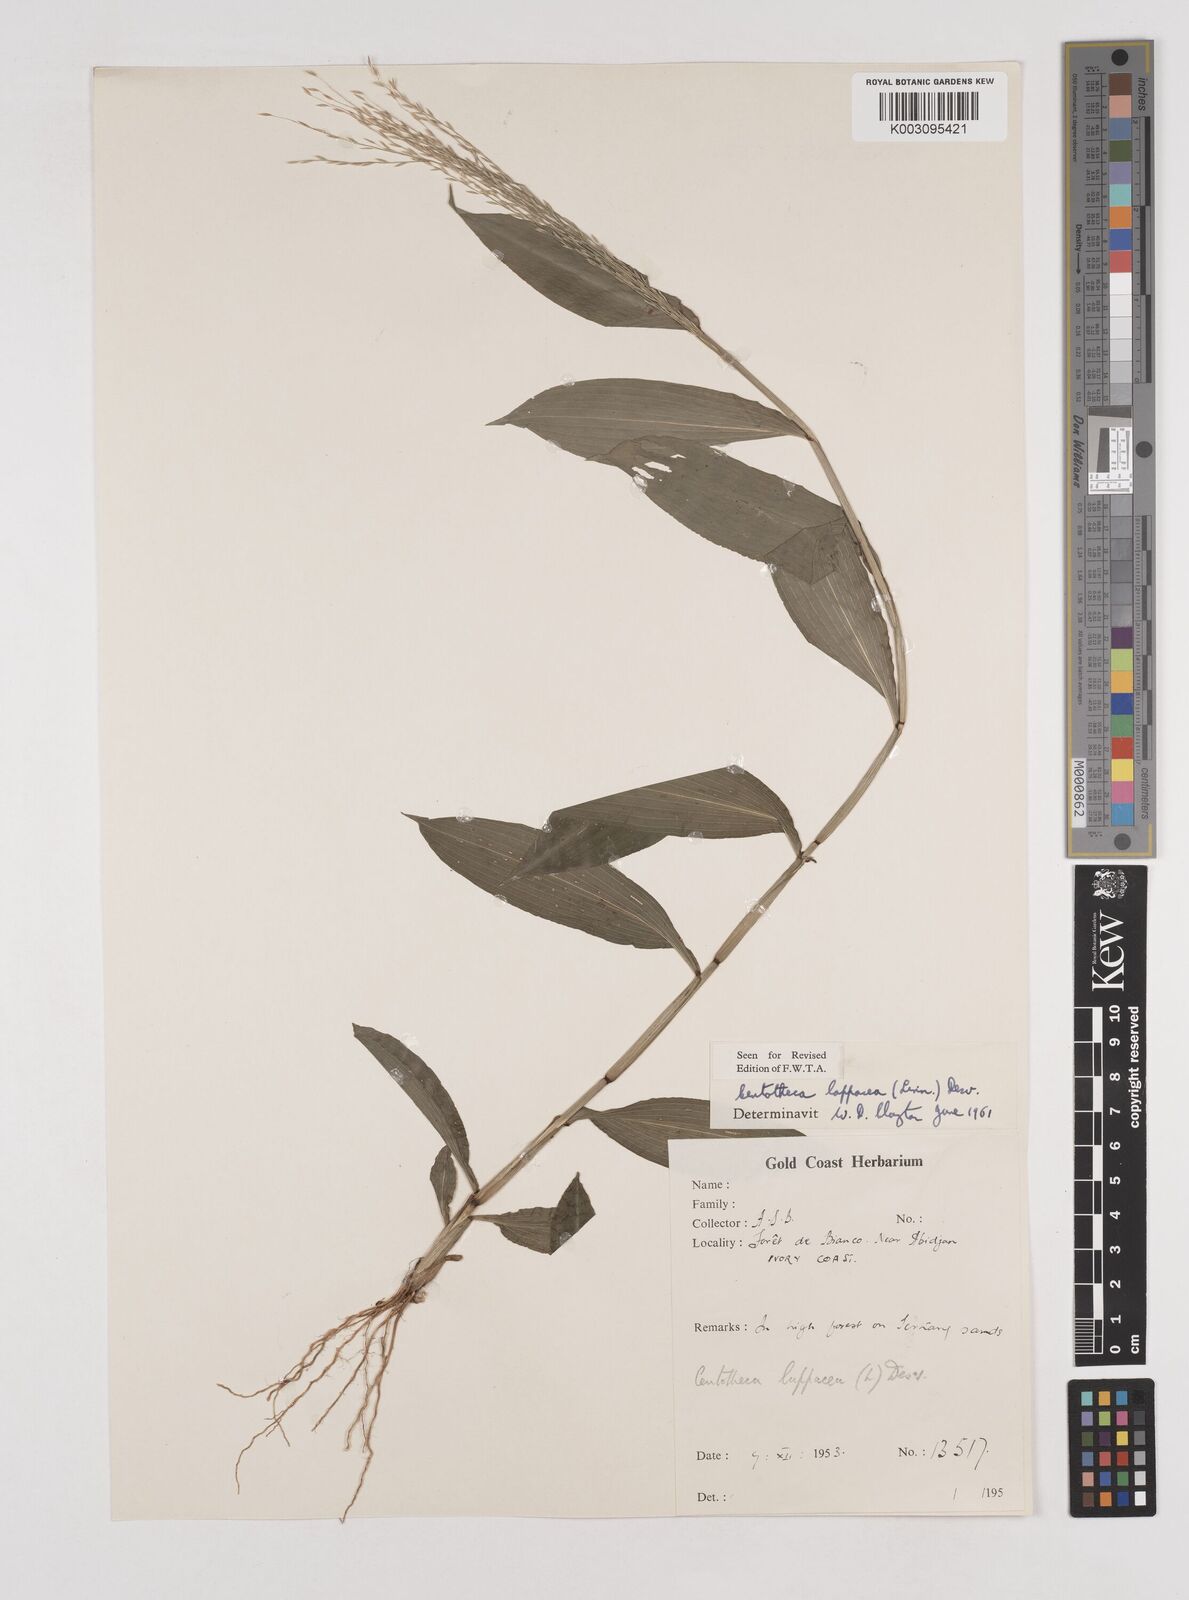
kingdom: Plantae
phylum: Tracheophyta
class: Liliopsida
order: Poales
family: Poaceae
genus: Centotheca
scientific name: Centotheca lappacea
